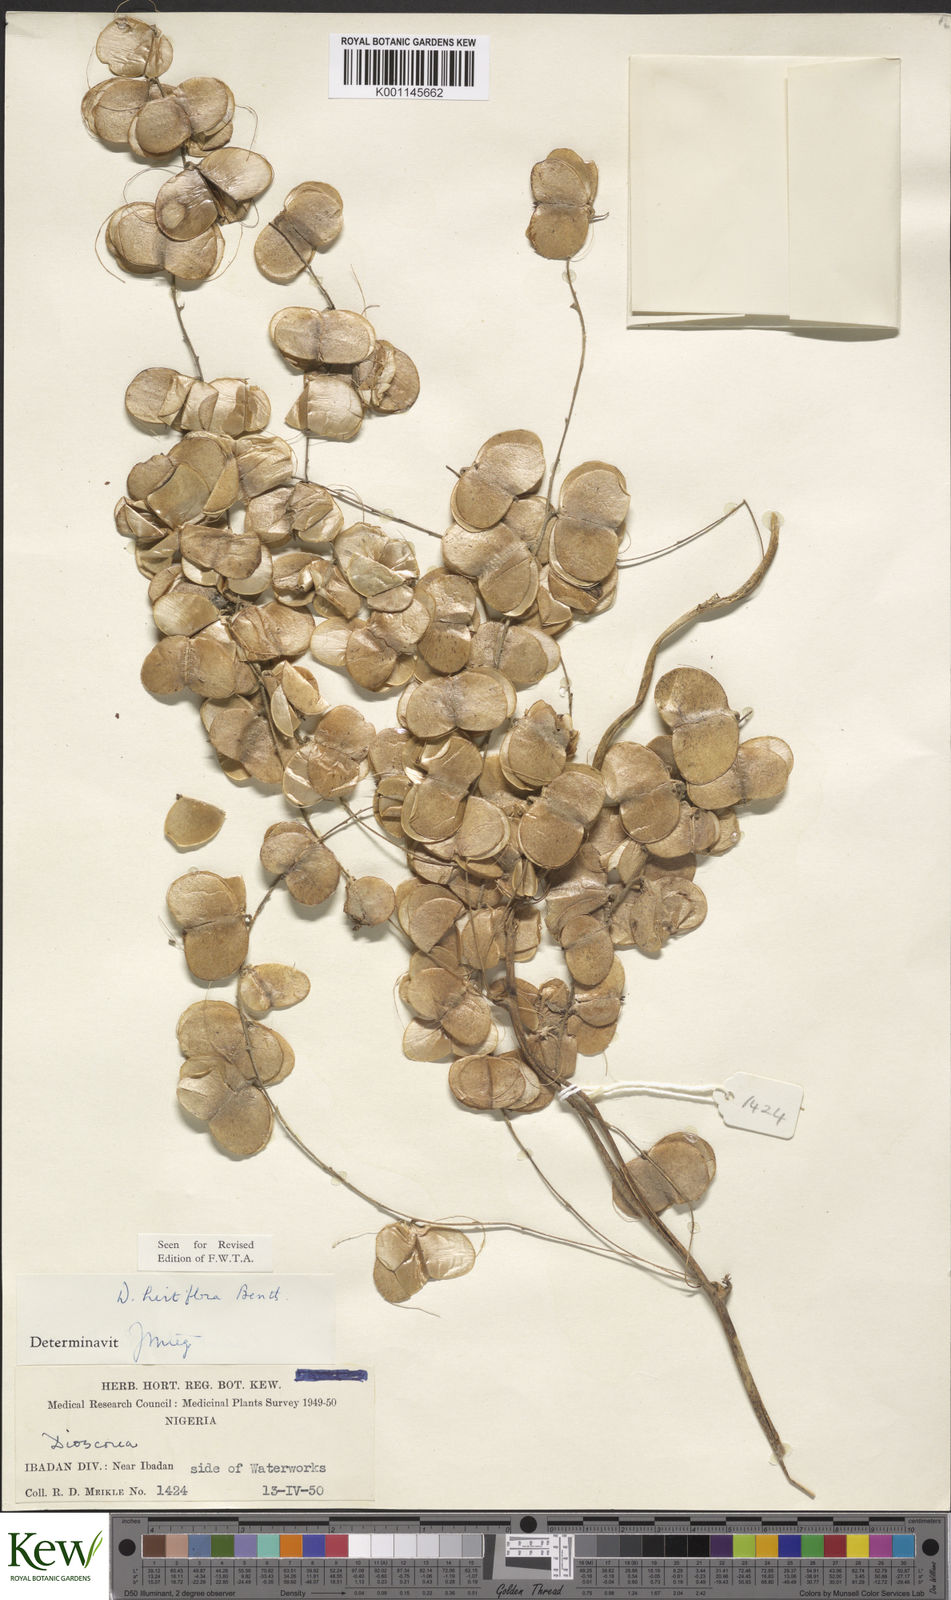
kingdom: Plantae
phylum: Tracheophyta
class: Liliopsida
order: Dioscoreales
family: Dioscoreaceae
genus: Dioscorea
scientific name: Dioscorea hirtiflora
